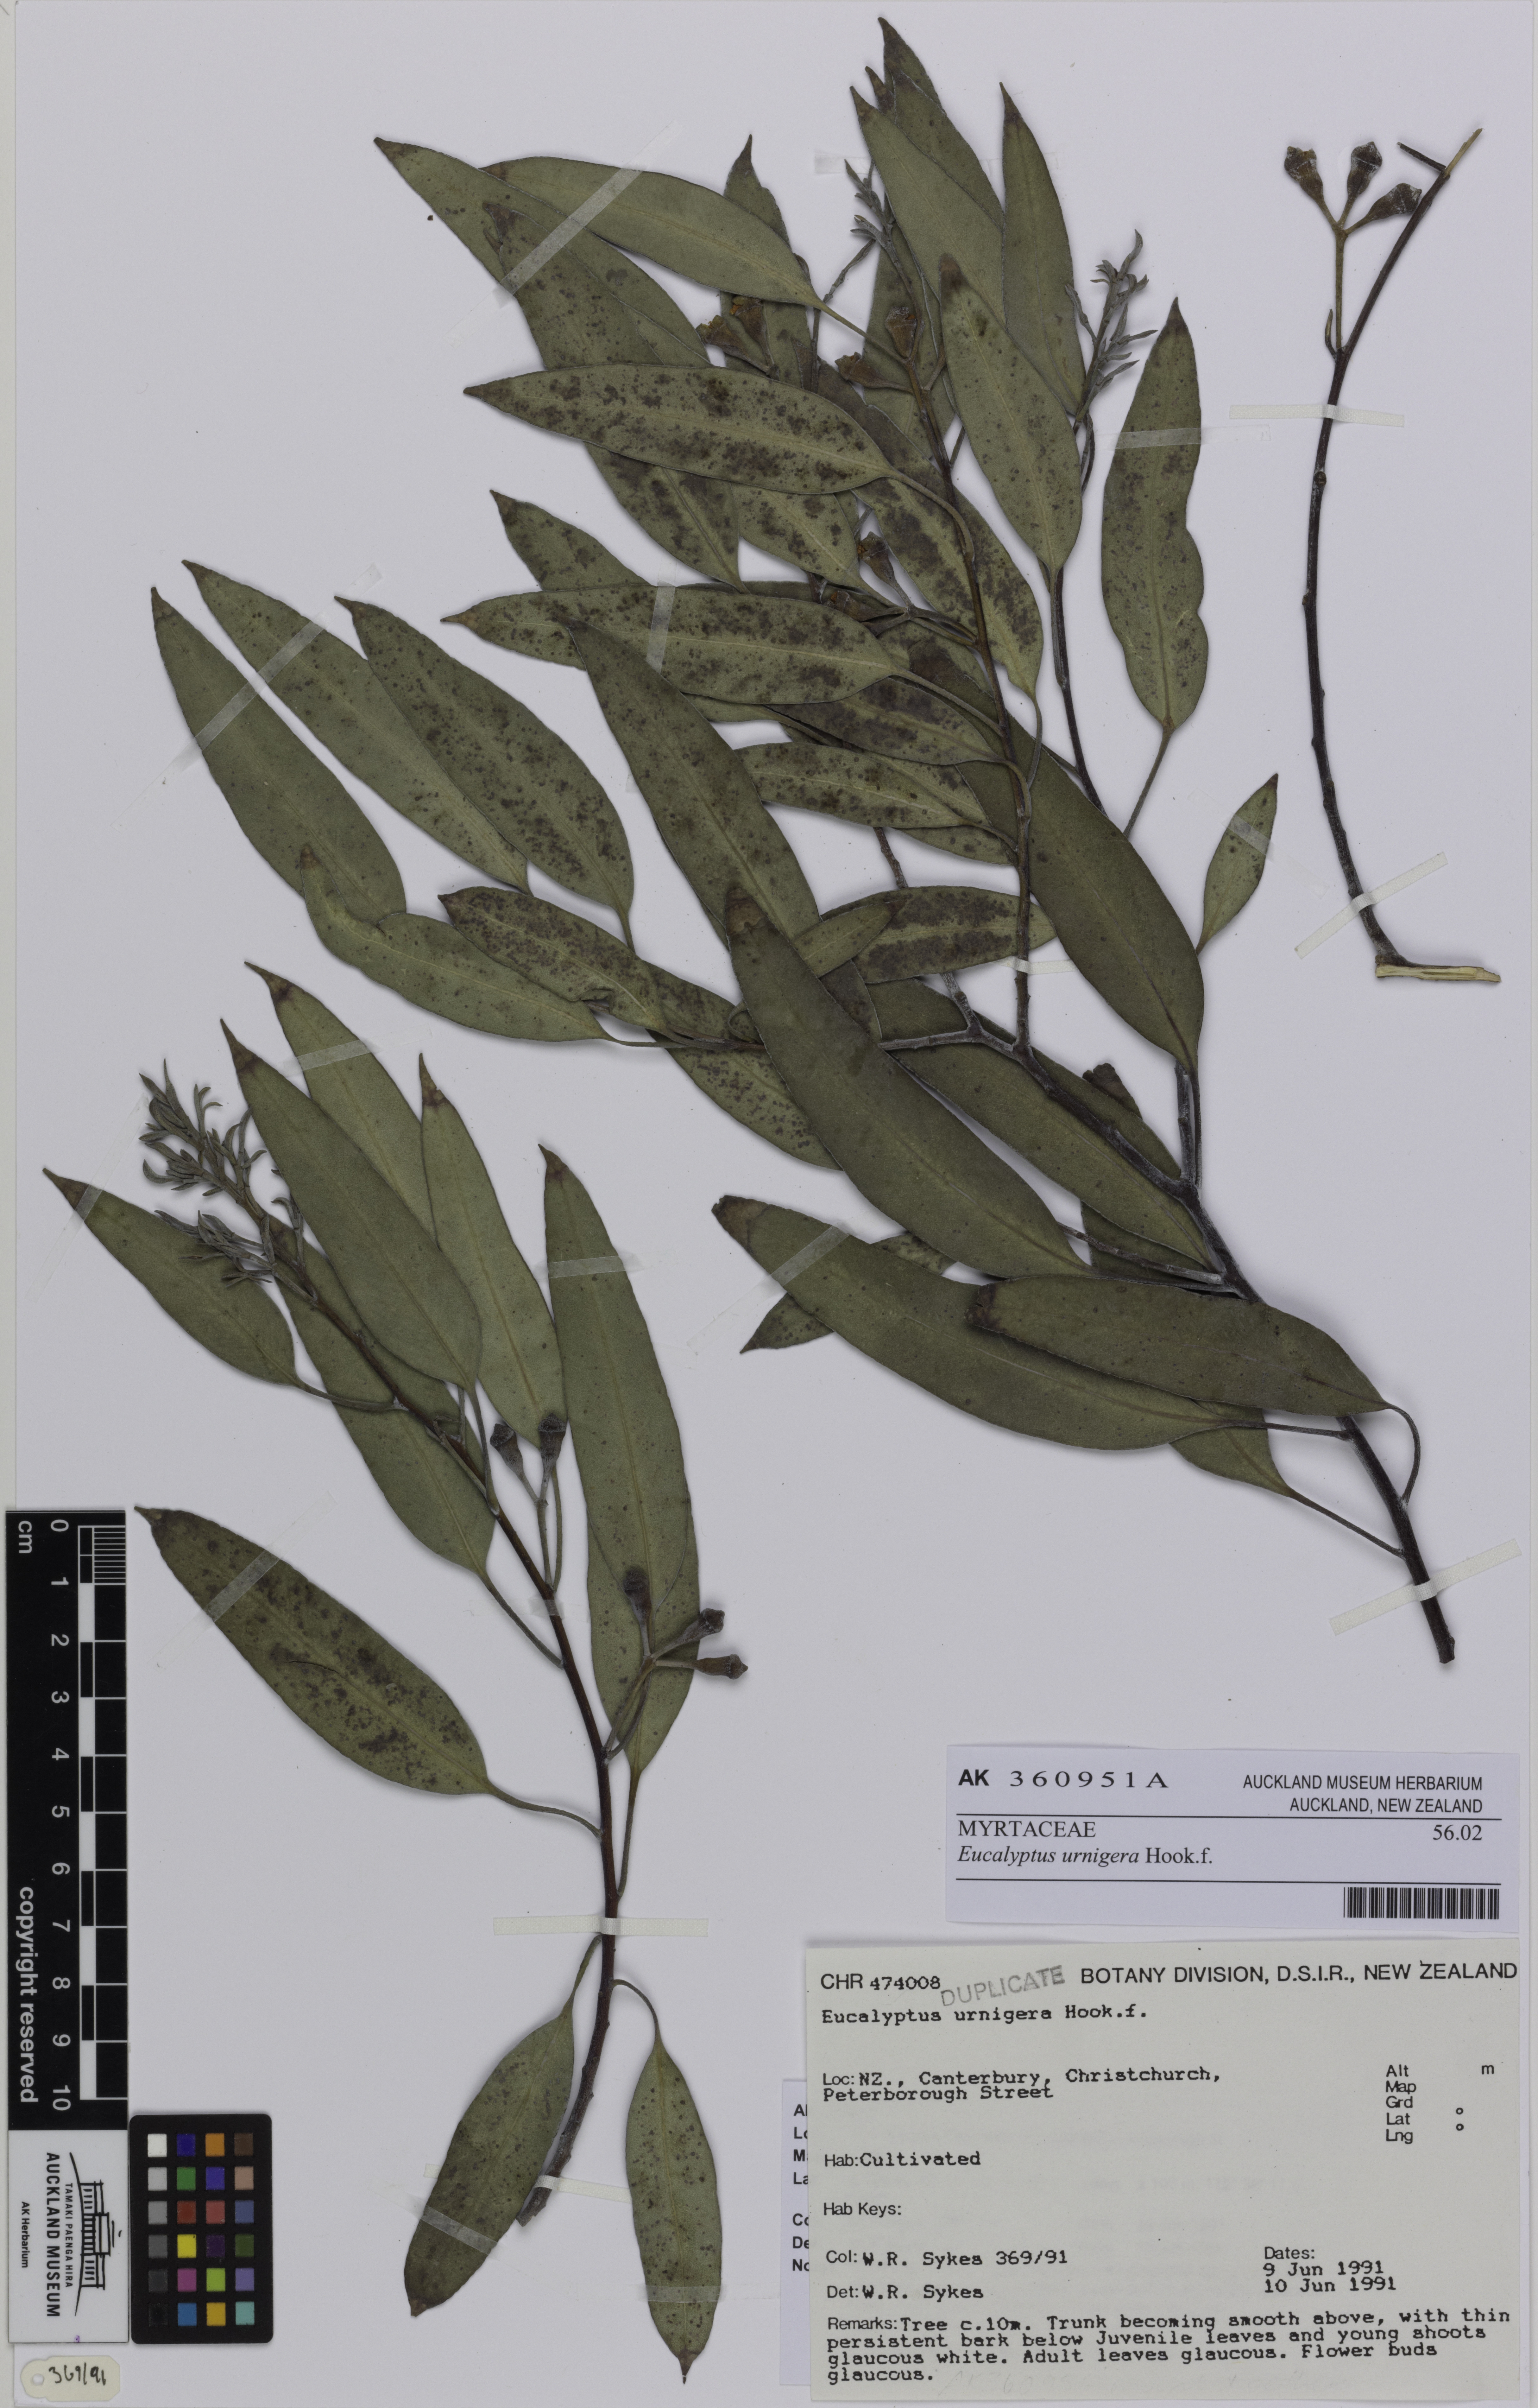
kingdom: Plantae
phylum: Tracheophyta
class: Magnoliopsida
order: Myrtales
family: Myrtaceae
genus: Eucalyptus
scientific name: Eucalyptus urnigera
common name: Urn-fruited gum
